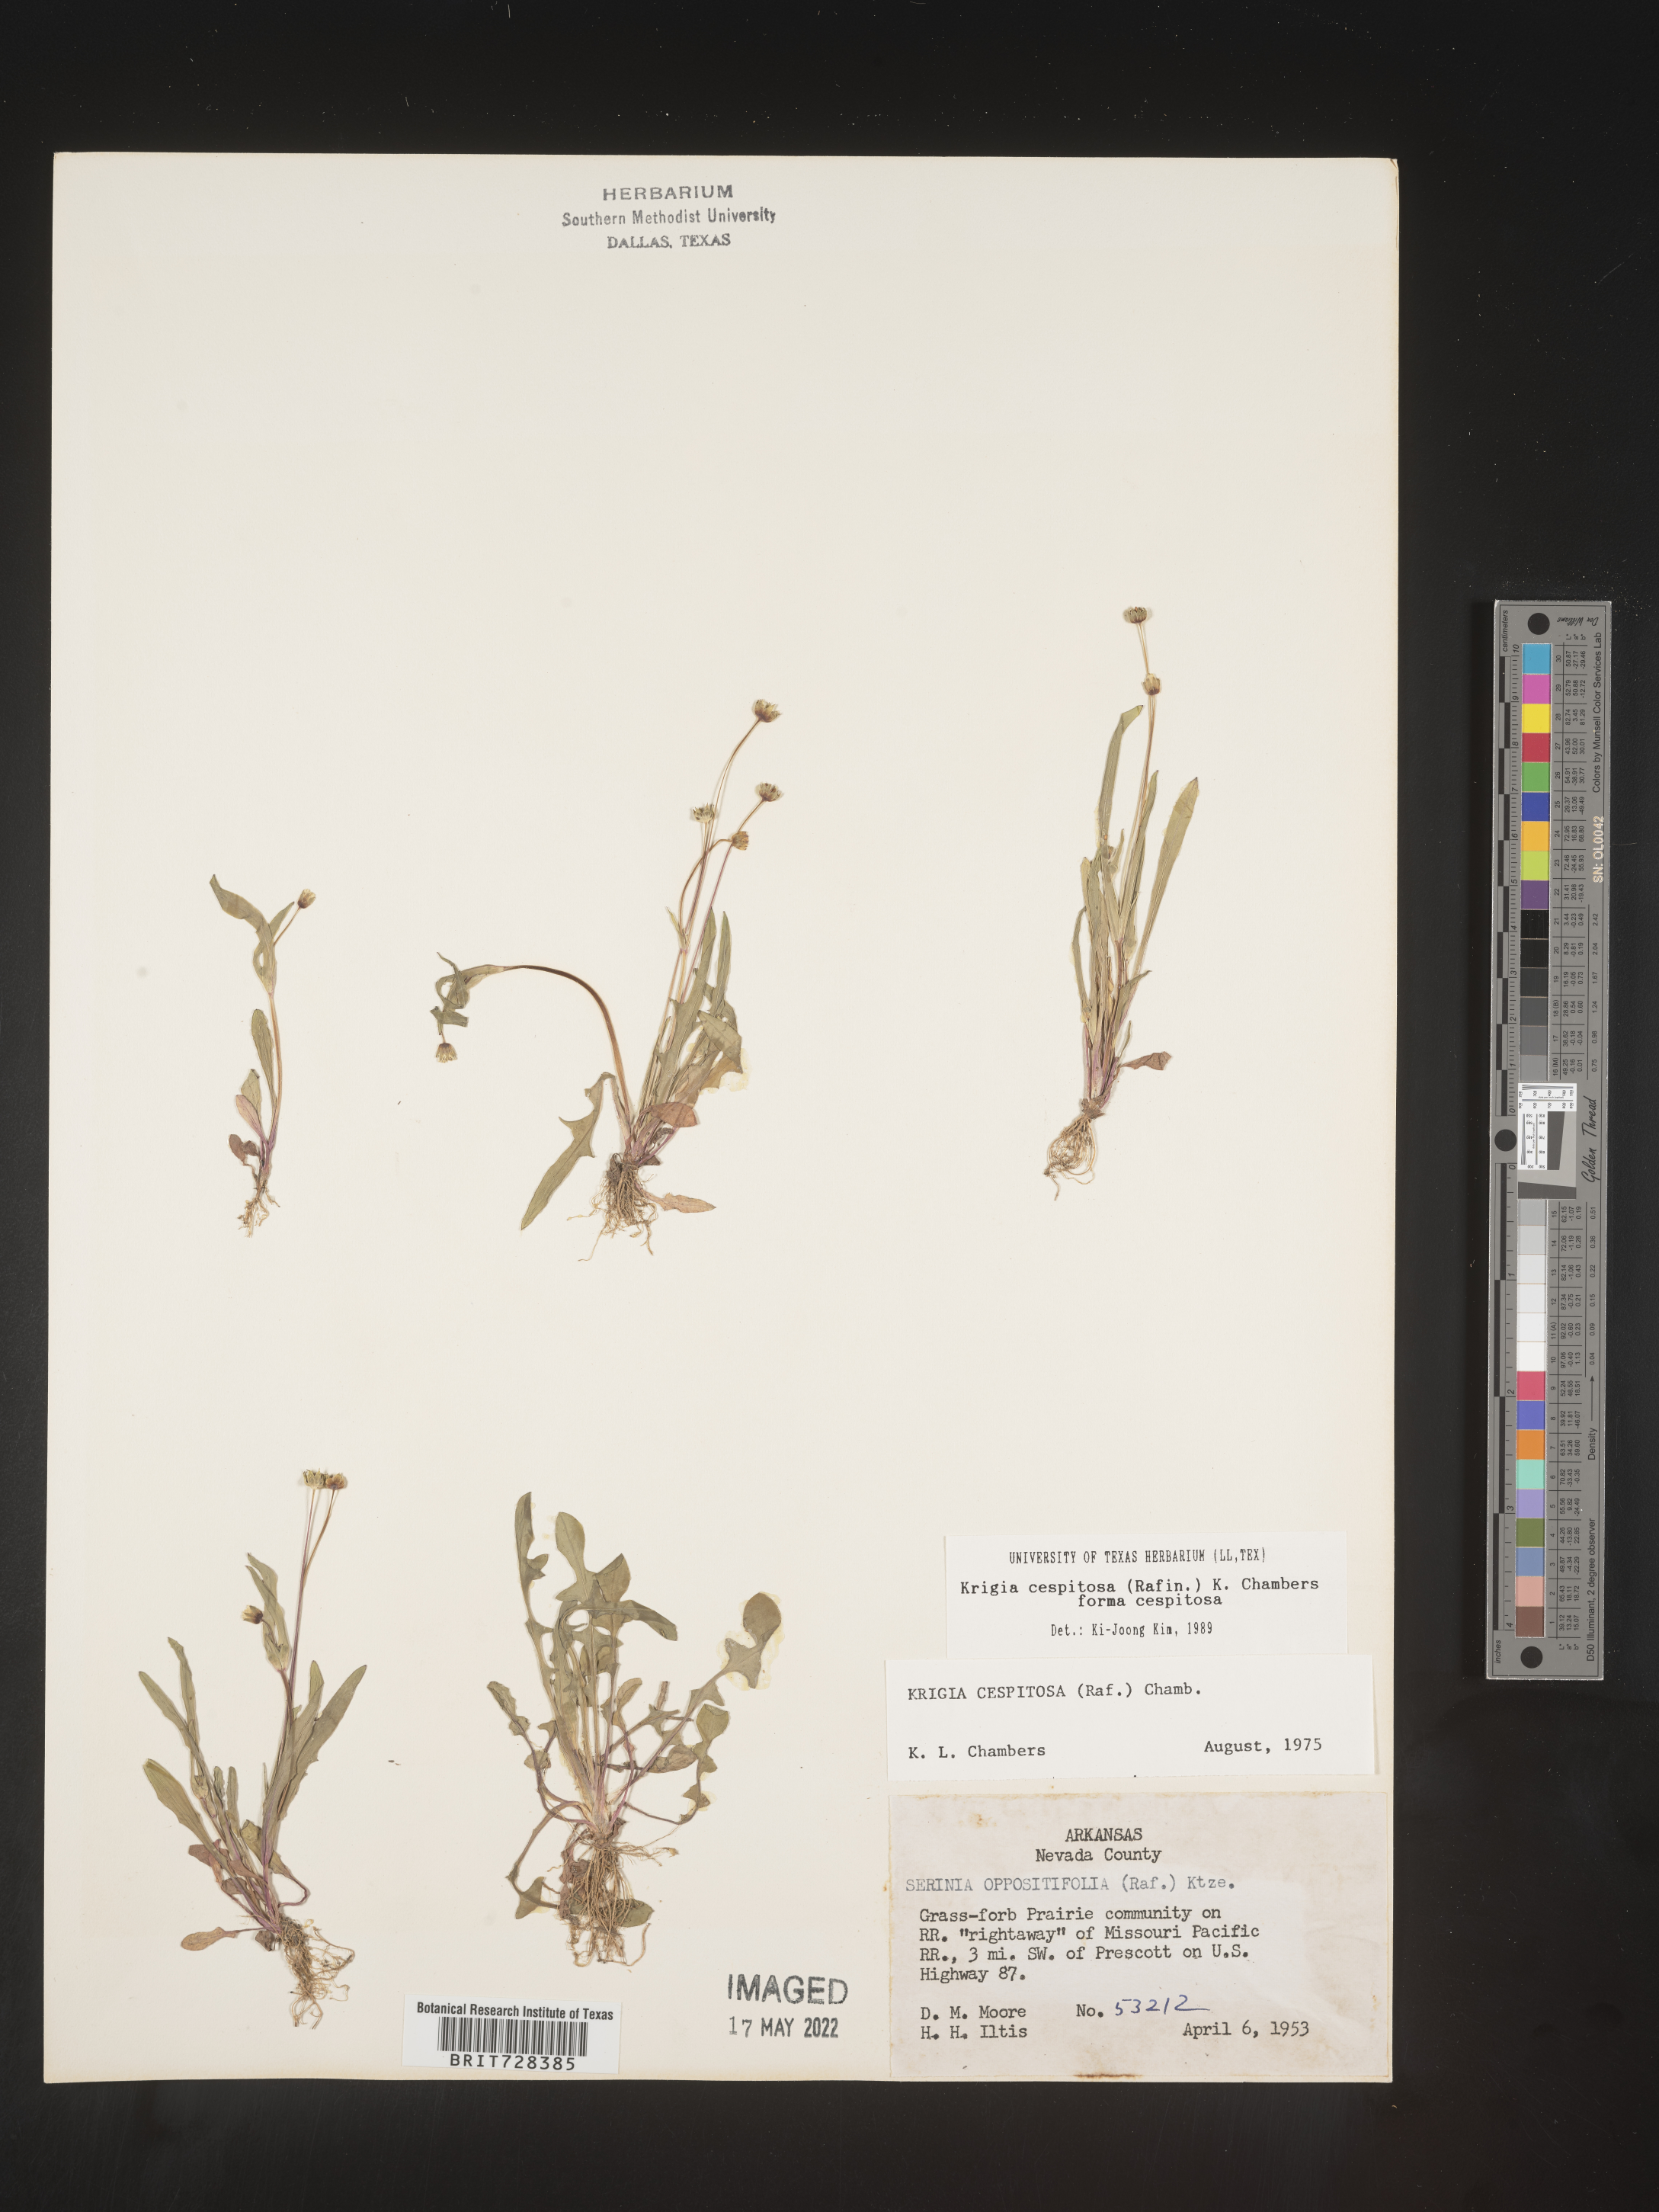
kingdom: Plantae
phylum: Tracheophyta
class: Magnoliopsida
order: Asterales
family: Asteraceae
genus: Krigia
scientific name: Krigia caespitosa
